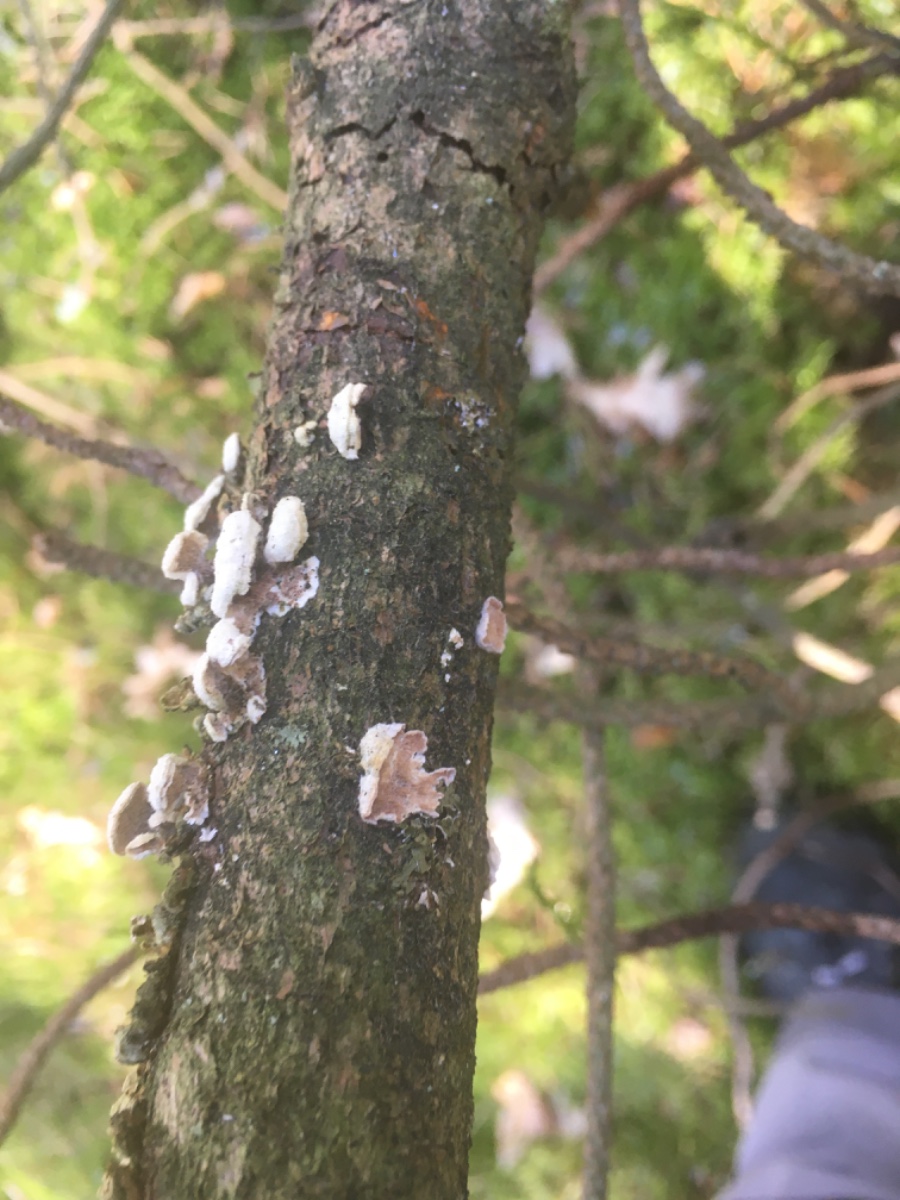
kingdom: Fungi
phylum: Basidiomycota
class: Agaricomycetes
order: Hymenochaetales
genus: Trichaptum
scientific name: Trichaptum fuscoviolaceum
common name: tandet violporesvamp
